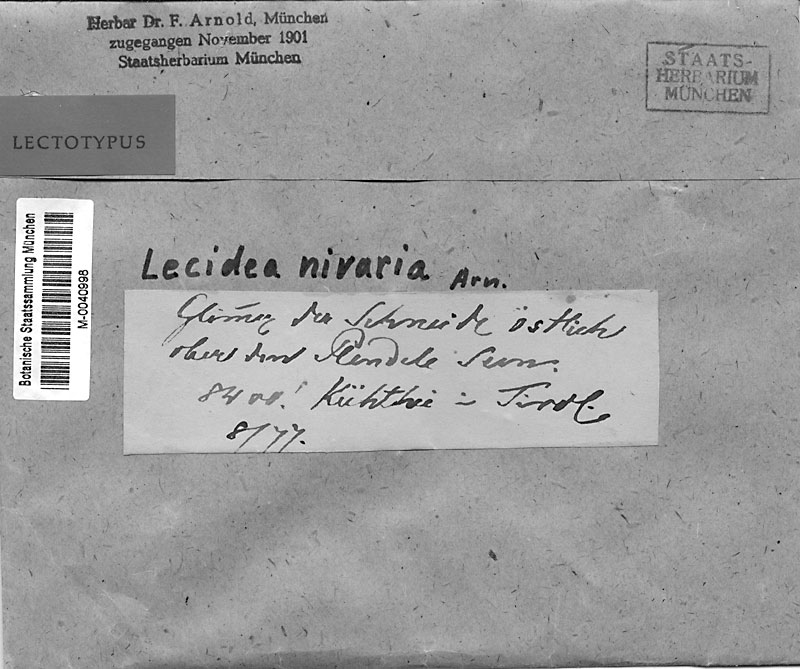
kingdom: Fungi
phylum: Ascomycota
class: Lecanoromycetes
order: Lecanorales
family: Lecanoraceae
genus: Carbonea
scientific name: Carbonea nivaria
